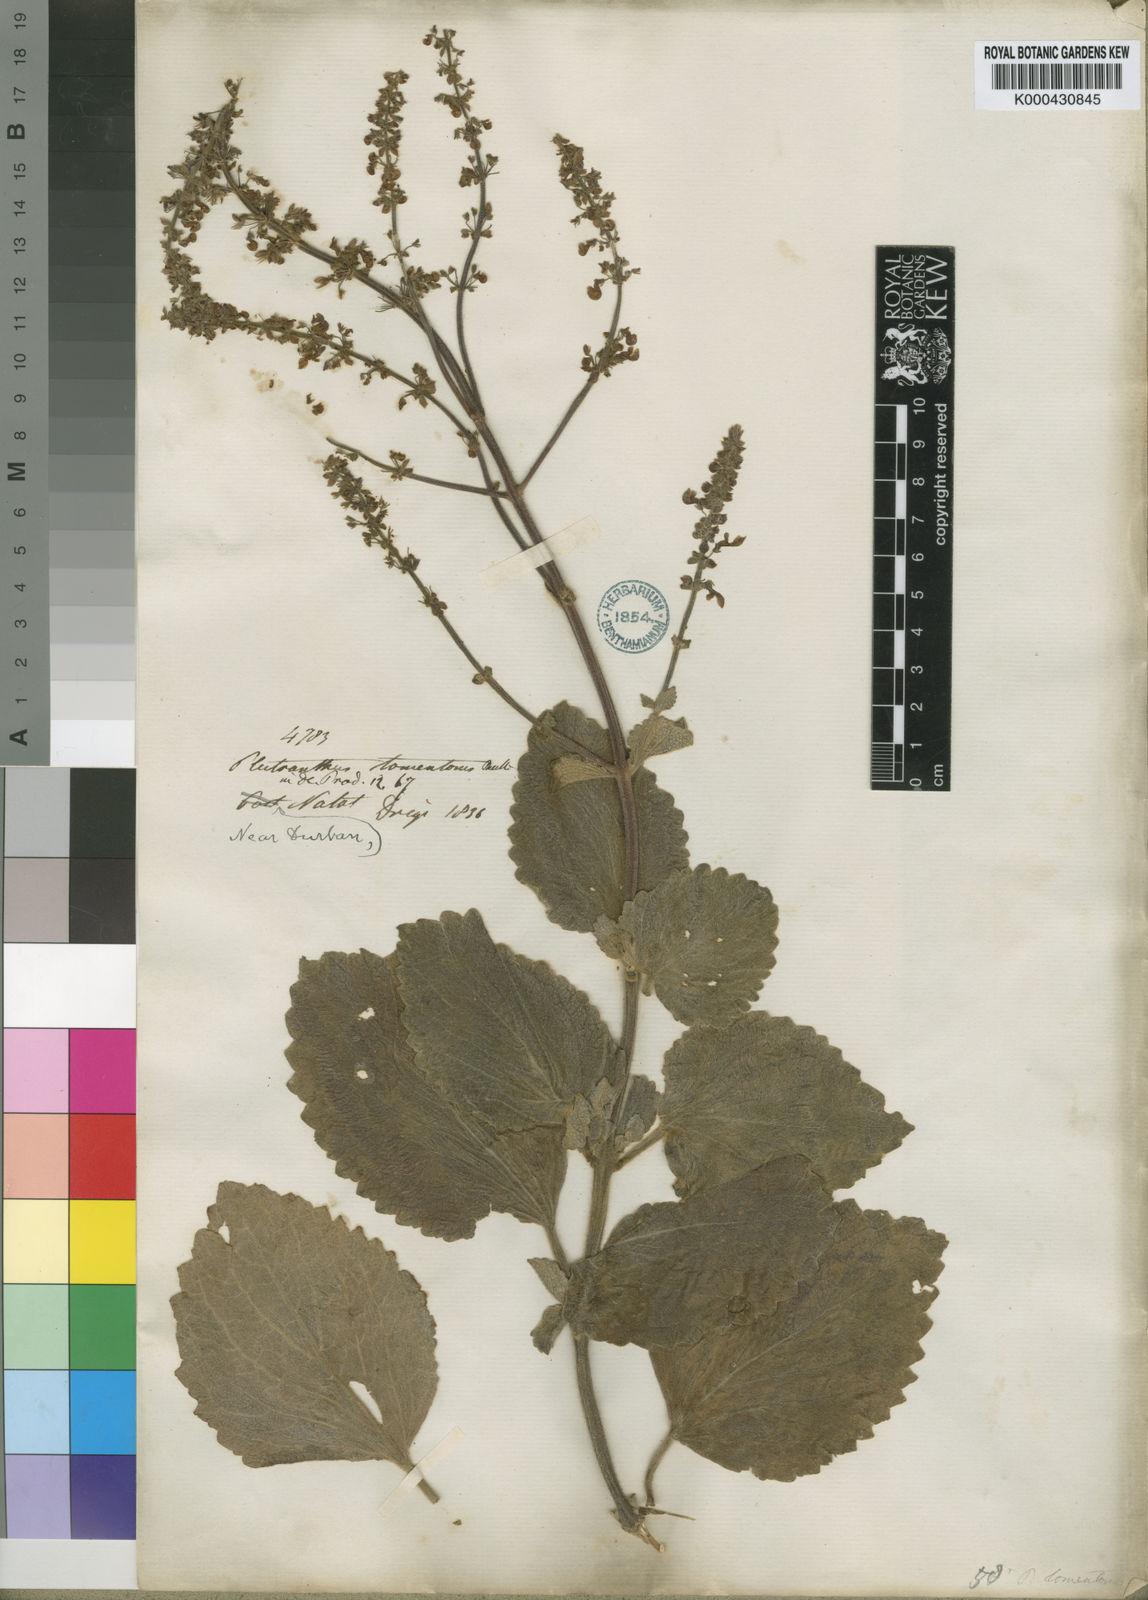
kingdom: Plantae
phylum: Tracheophyta
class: Magnoliopsida
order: Lamiales
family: Lamiaceae
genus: Coleus
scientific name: Coleus hadiensis
